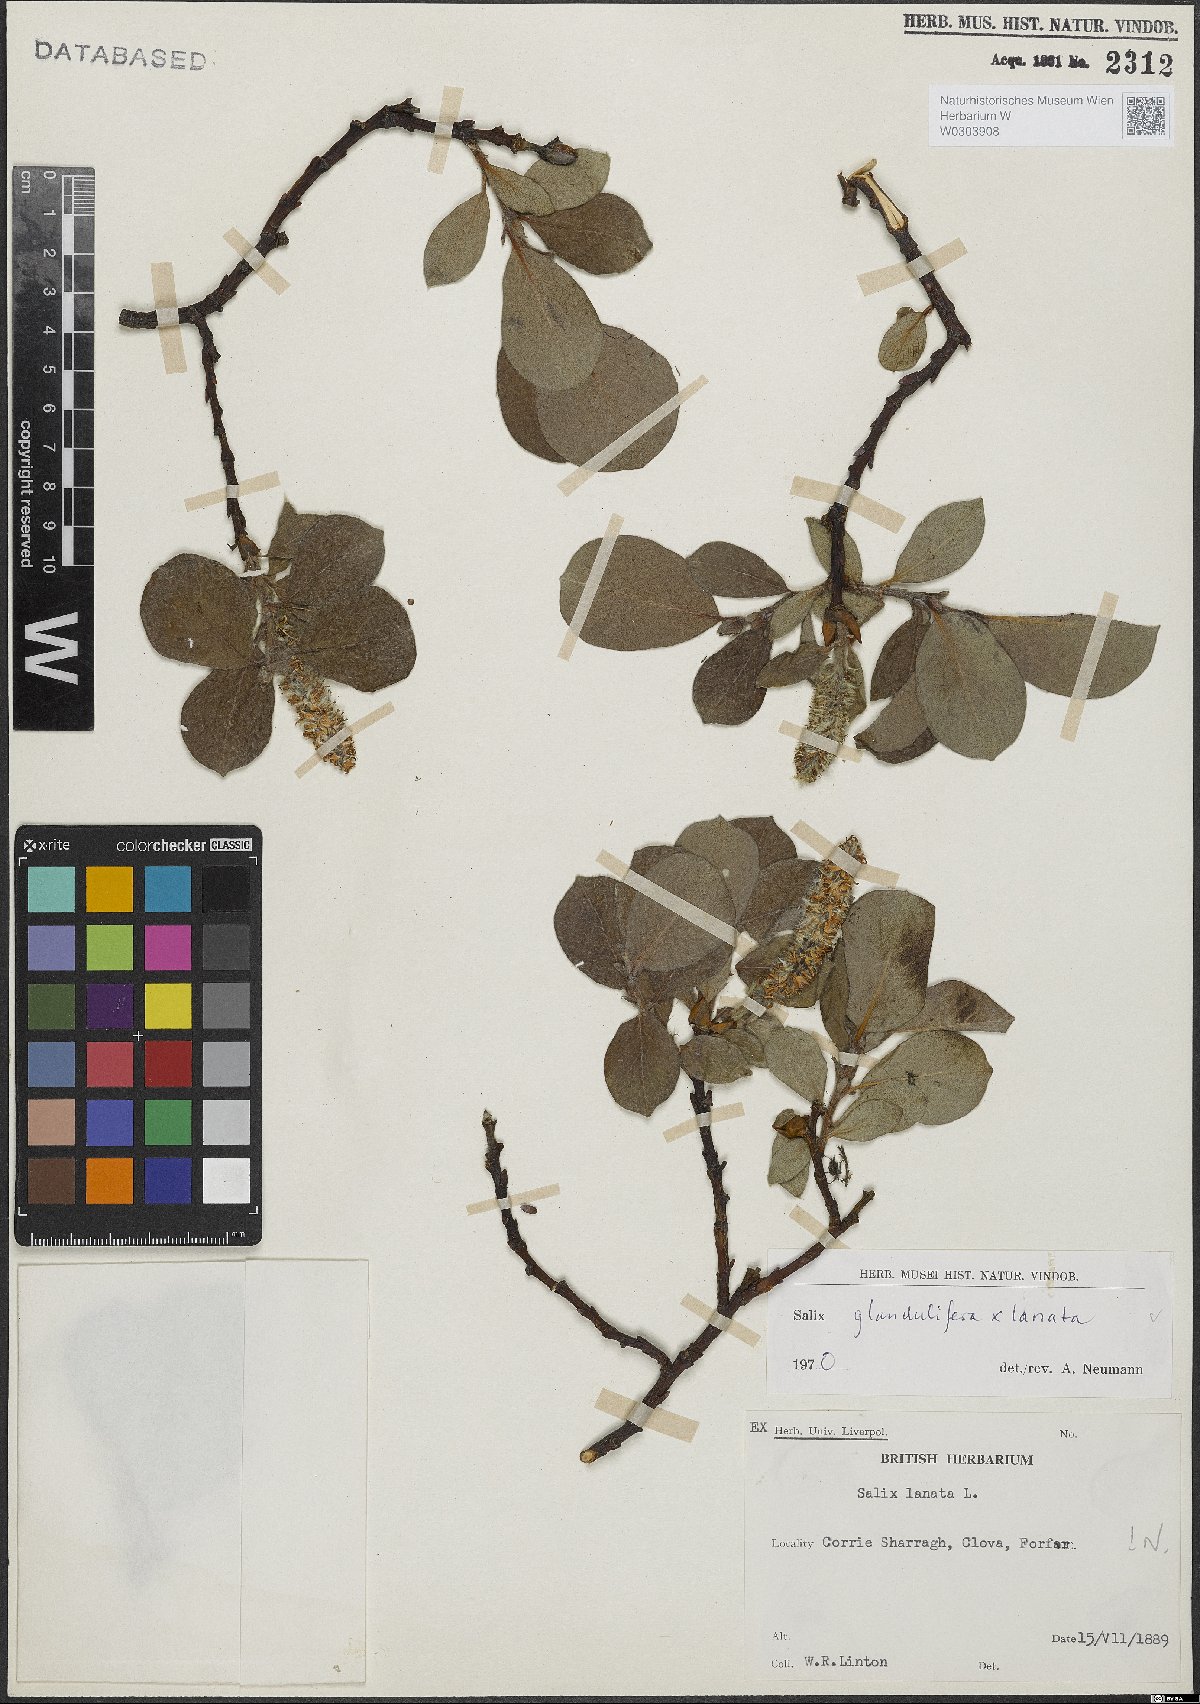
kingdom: Plantae
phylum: Tracheophyta
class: Magnoliopsida
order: Malpighiales
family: Salicaceae
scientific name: Salicaceae
